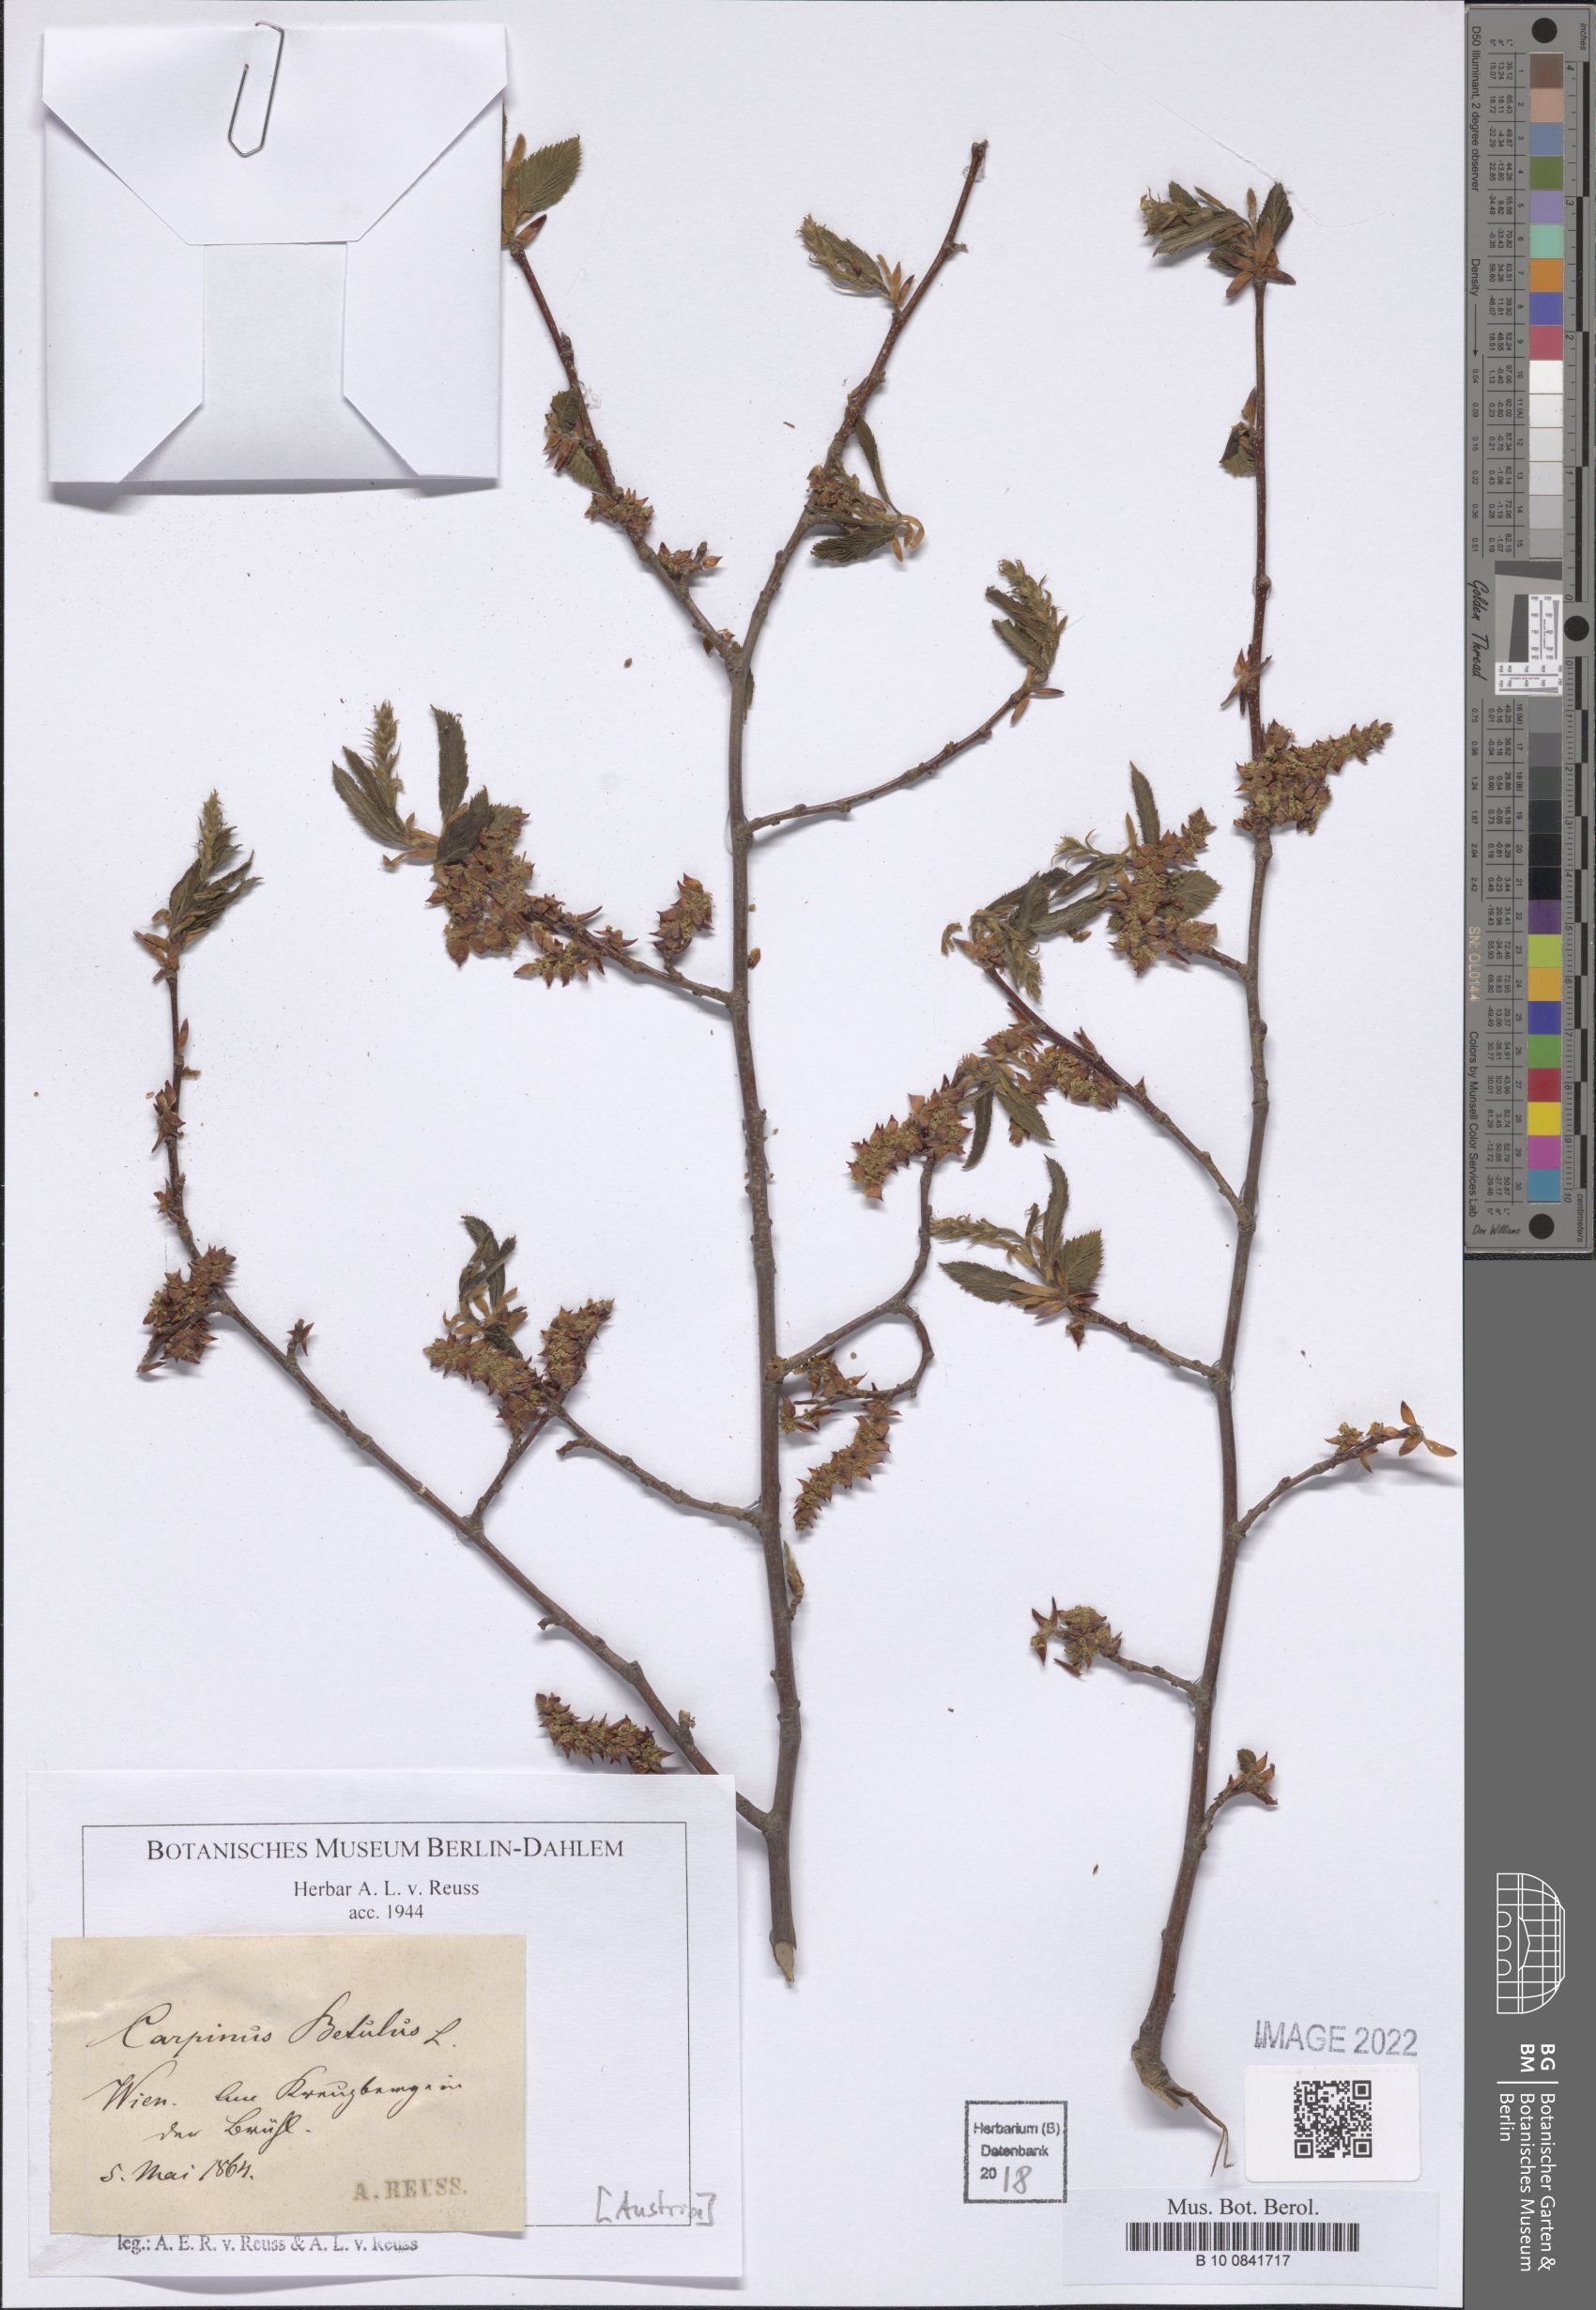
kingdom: Plantae
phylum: Tracheophyta
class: Magnoliopsida
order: Fagales
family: Betulaceae
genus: Carpinus
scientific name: Carpinus betulus
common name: Hornbeam
